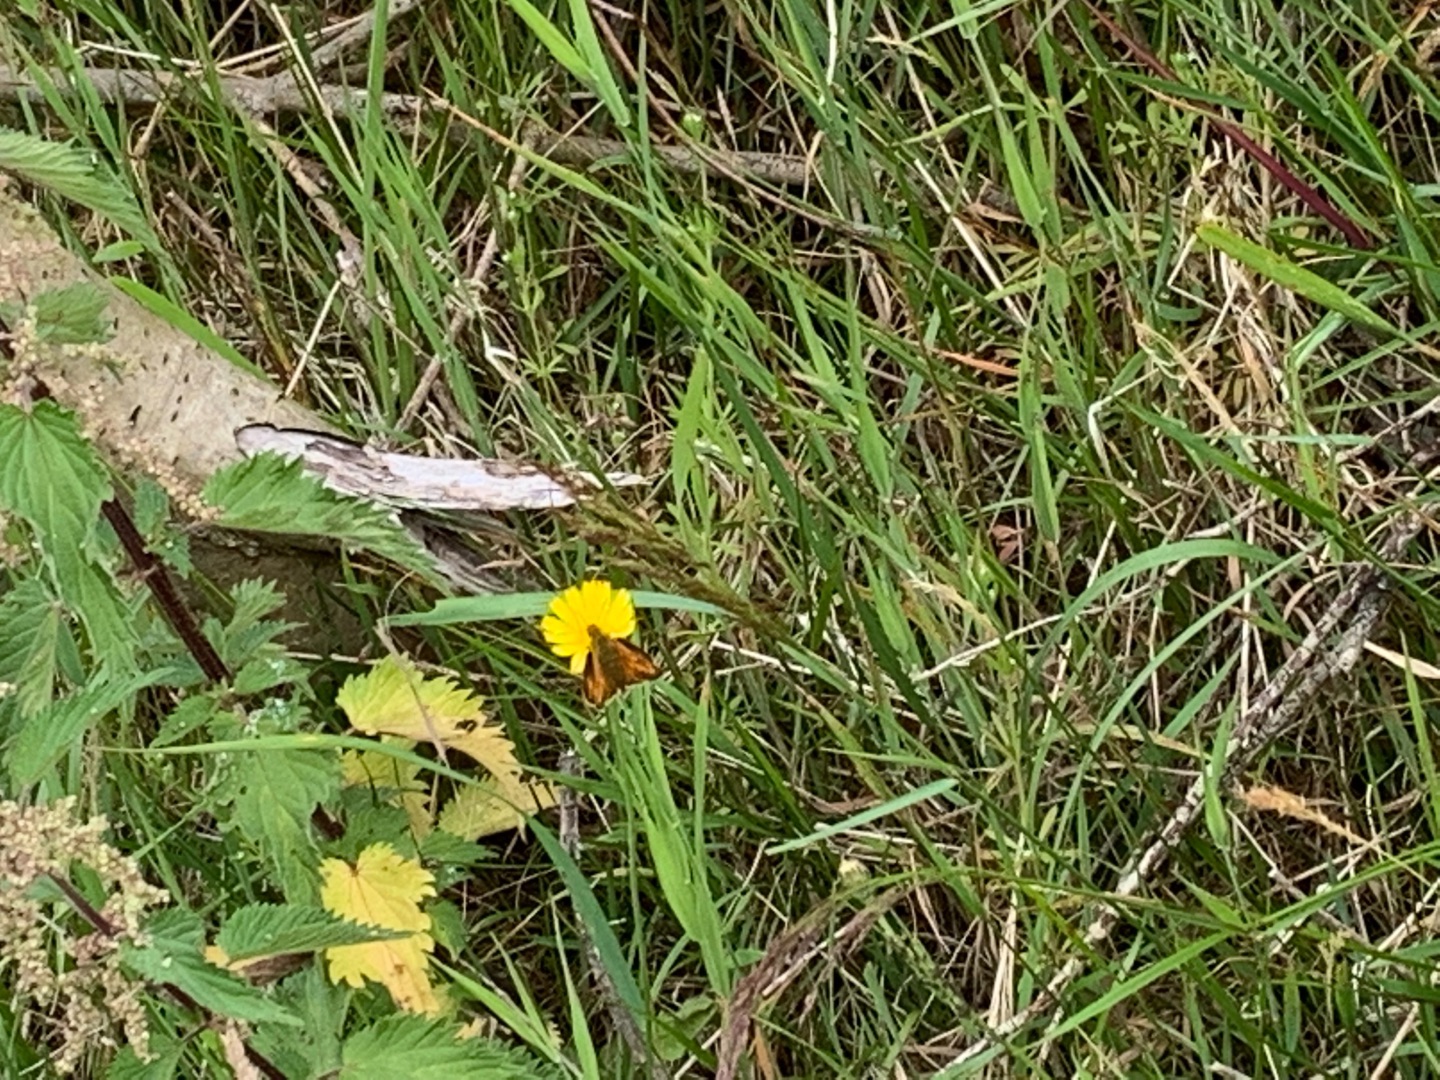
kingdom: Animalia
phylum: Arthropoda
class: Insecta
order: Lepidoptera
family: Hesperiidae
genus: Ochlodes
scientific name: Ochlodes venata
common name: Stor bredpande
